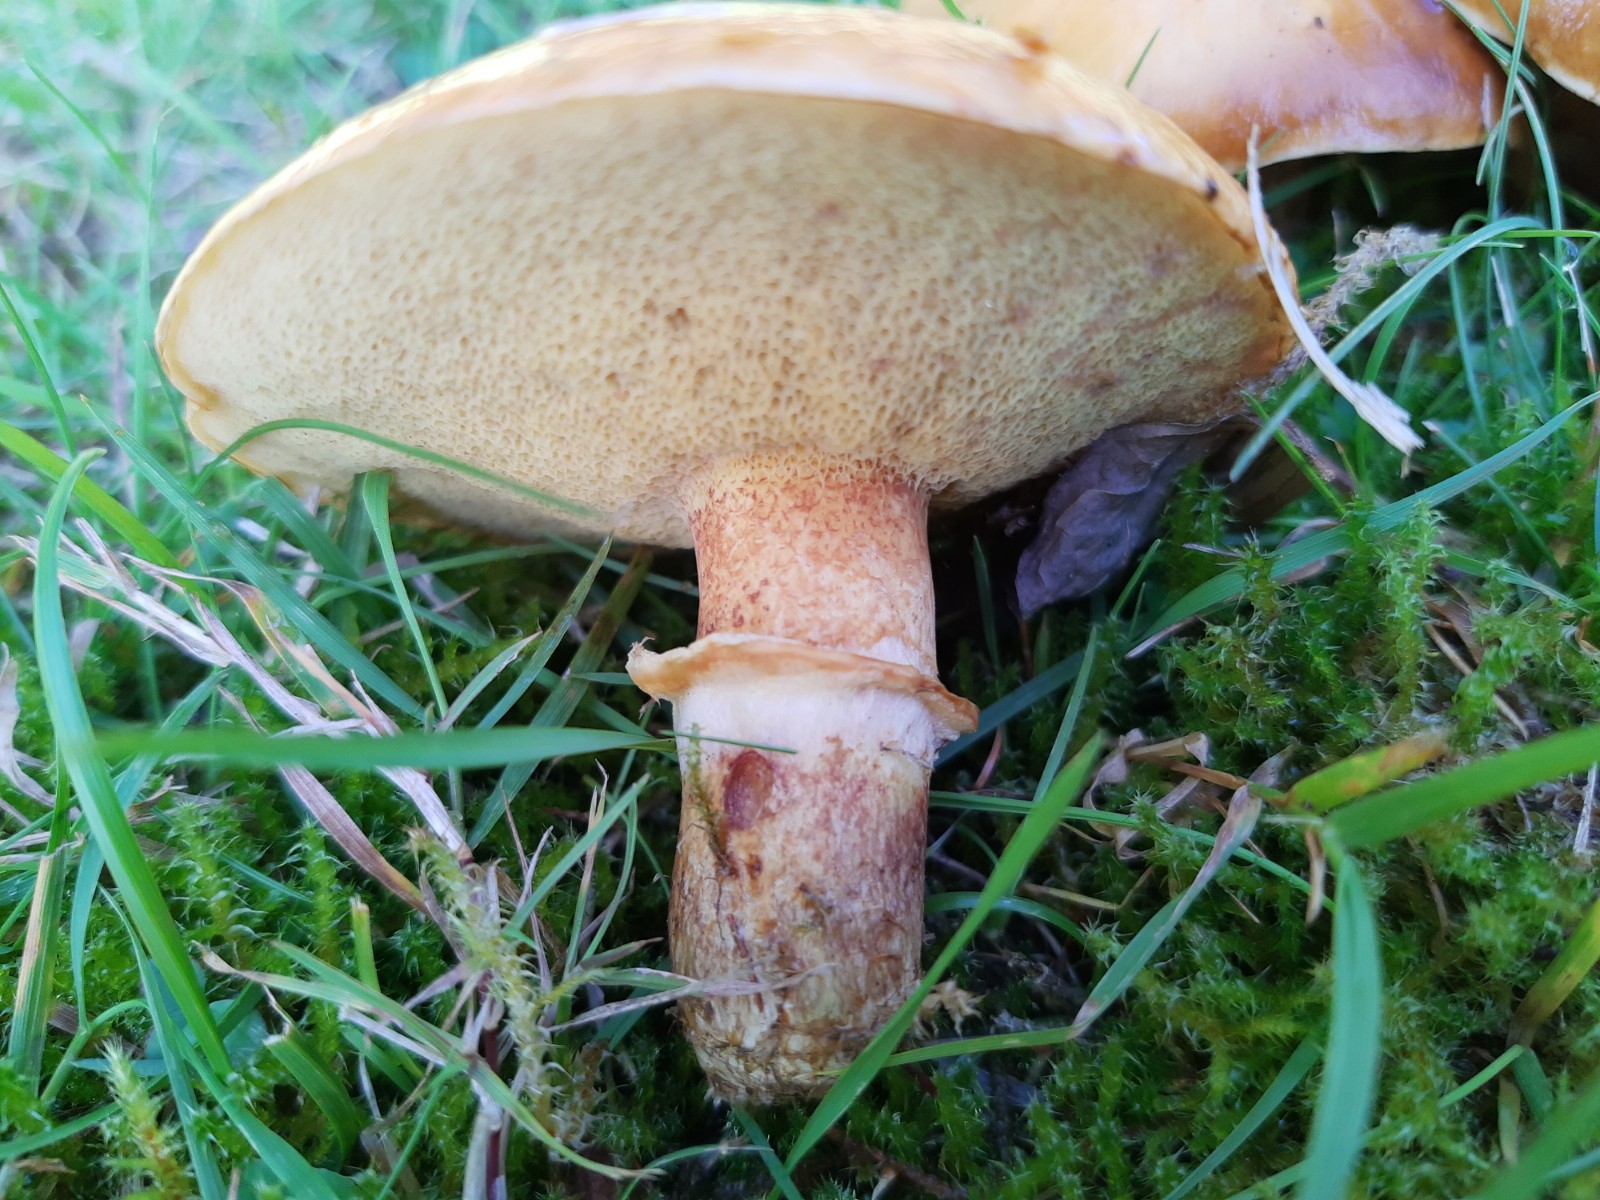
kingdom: Fungi
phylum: Basidiomycota
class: Agaricomycetes
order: Boletales
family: Suillaceae
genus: Suillus
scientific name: Suillus grevillei
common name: lærke-slimrørhat
